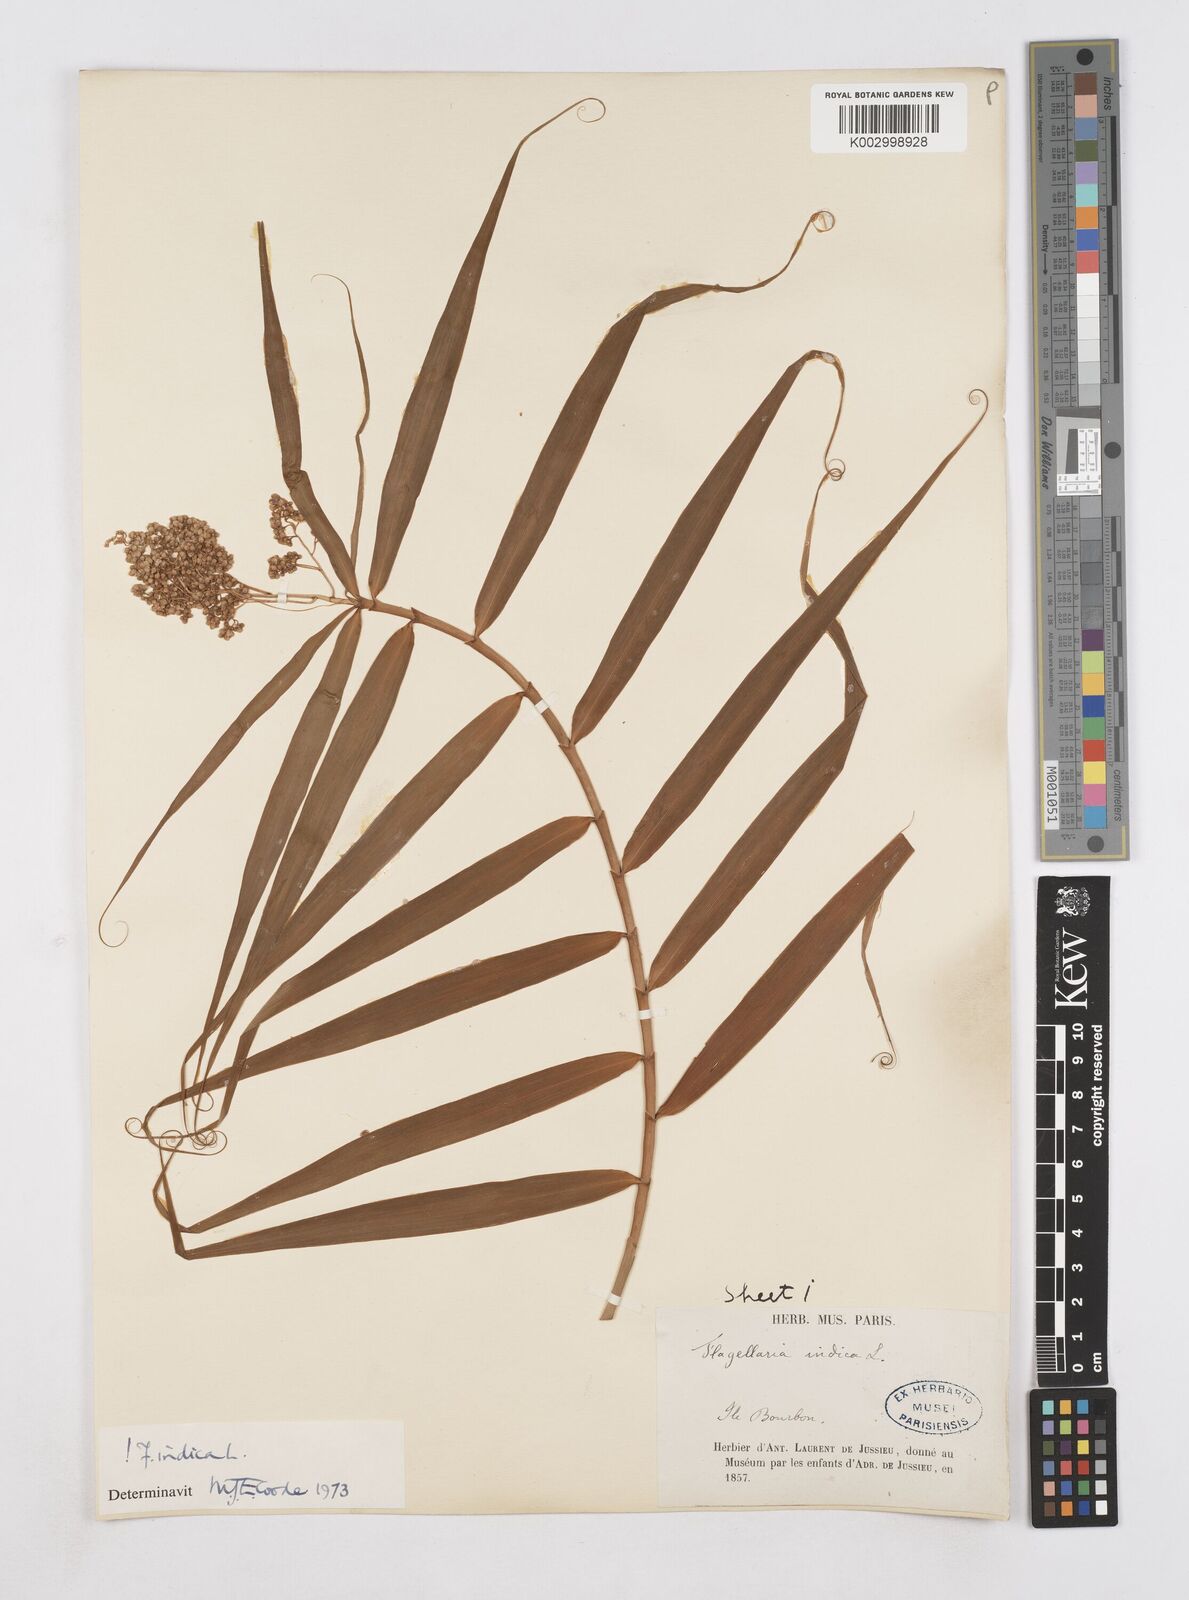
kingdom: Plantae
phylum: Tracheophyta
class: Liliopsida
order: Poales
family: Flagellariaceae
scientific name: Flagellariaceae
